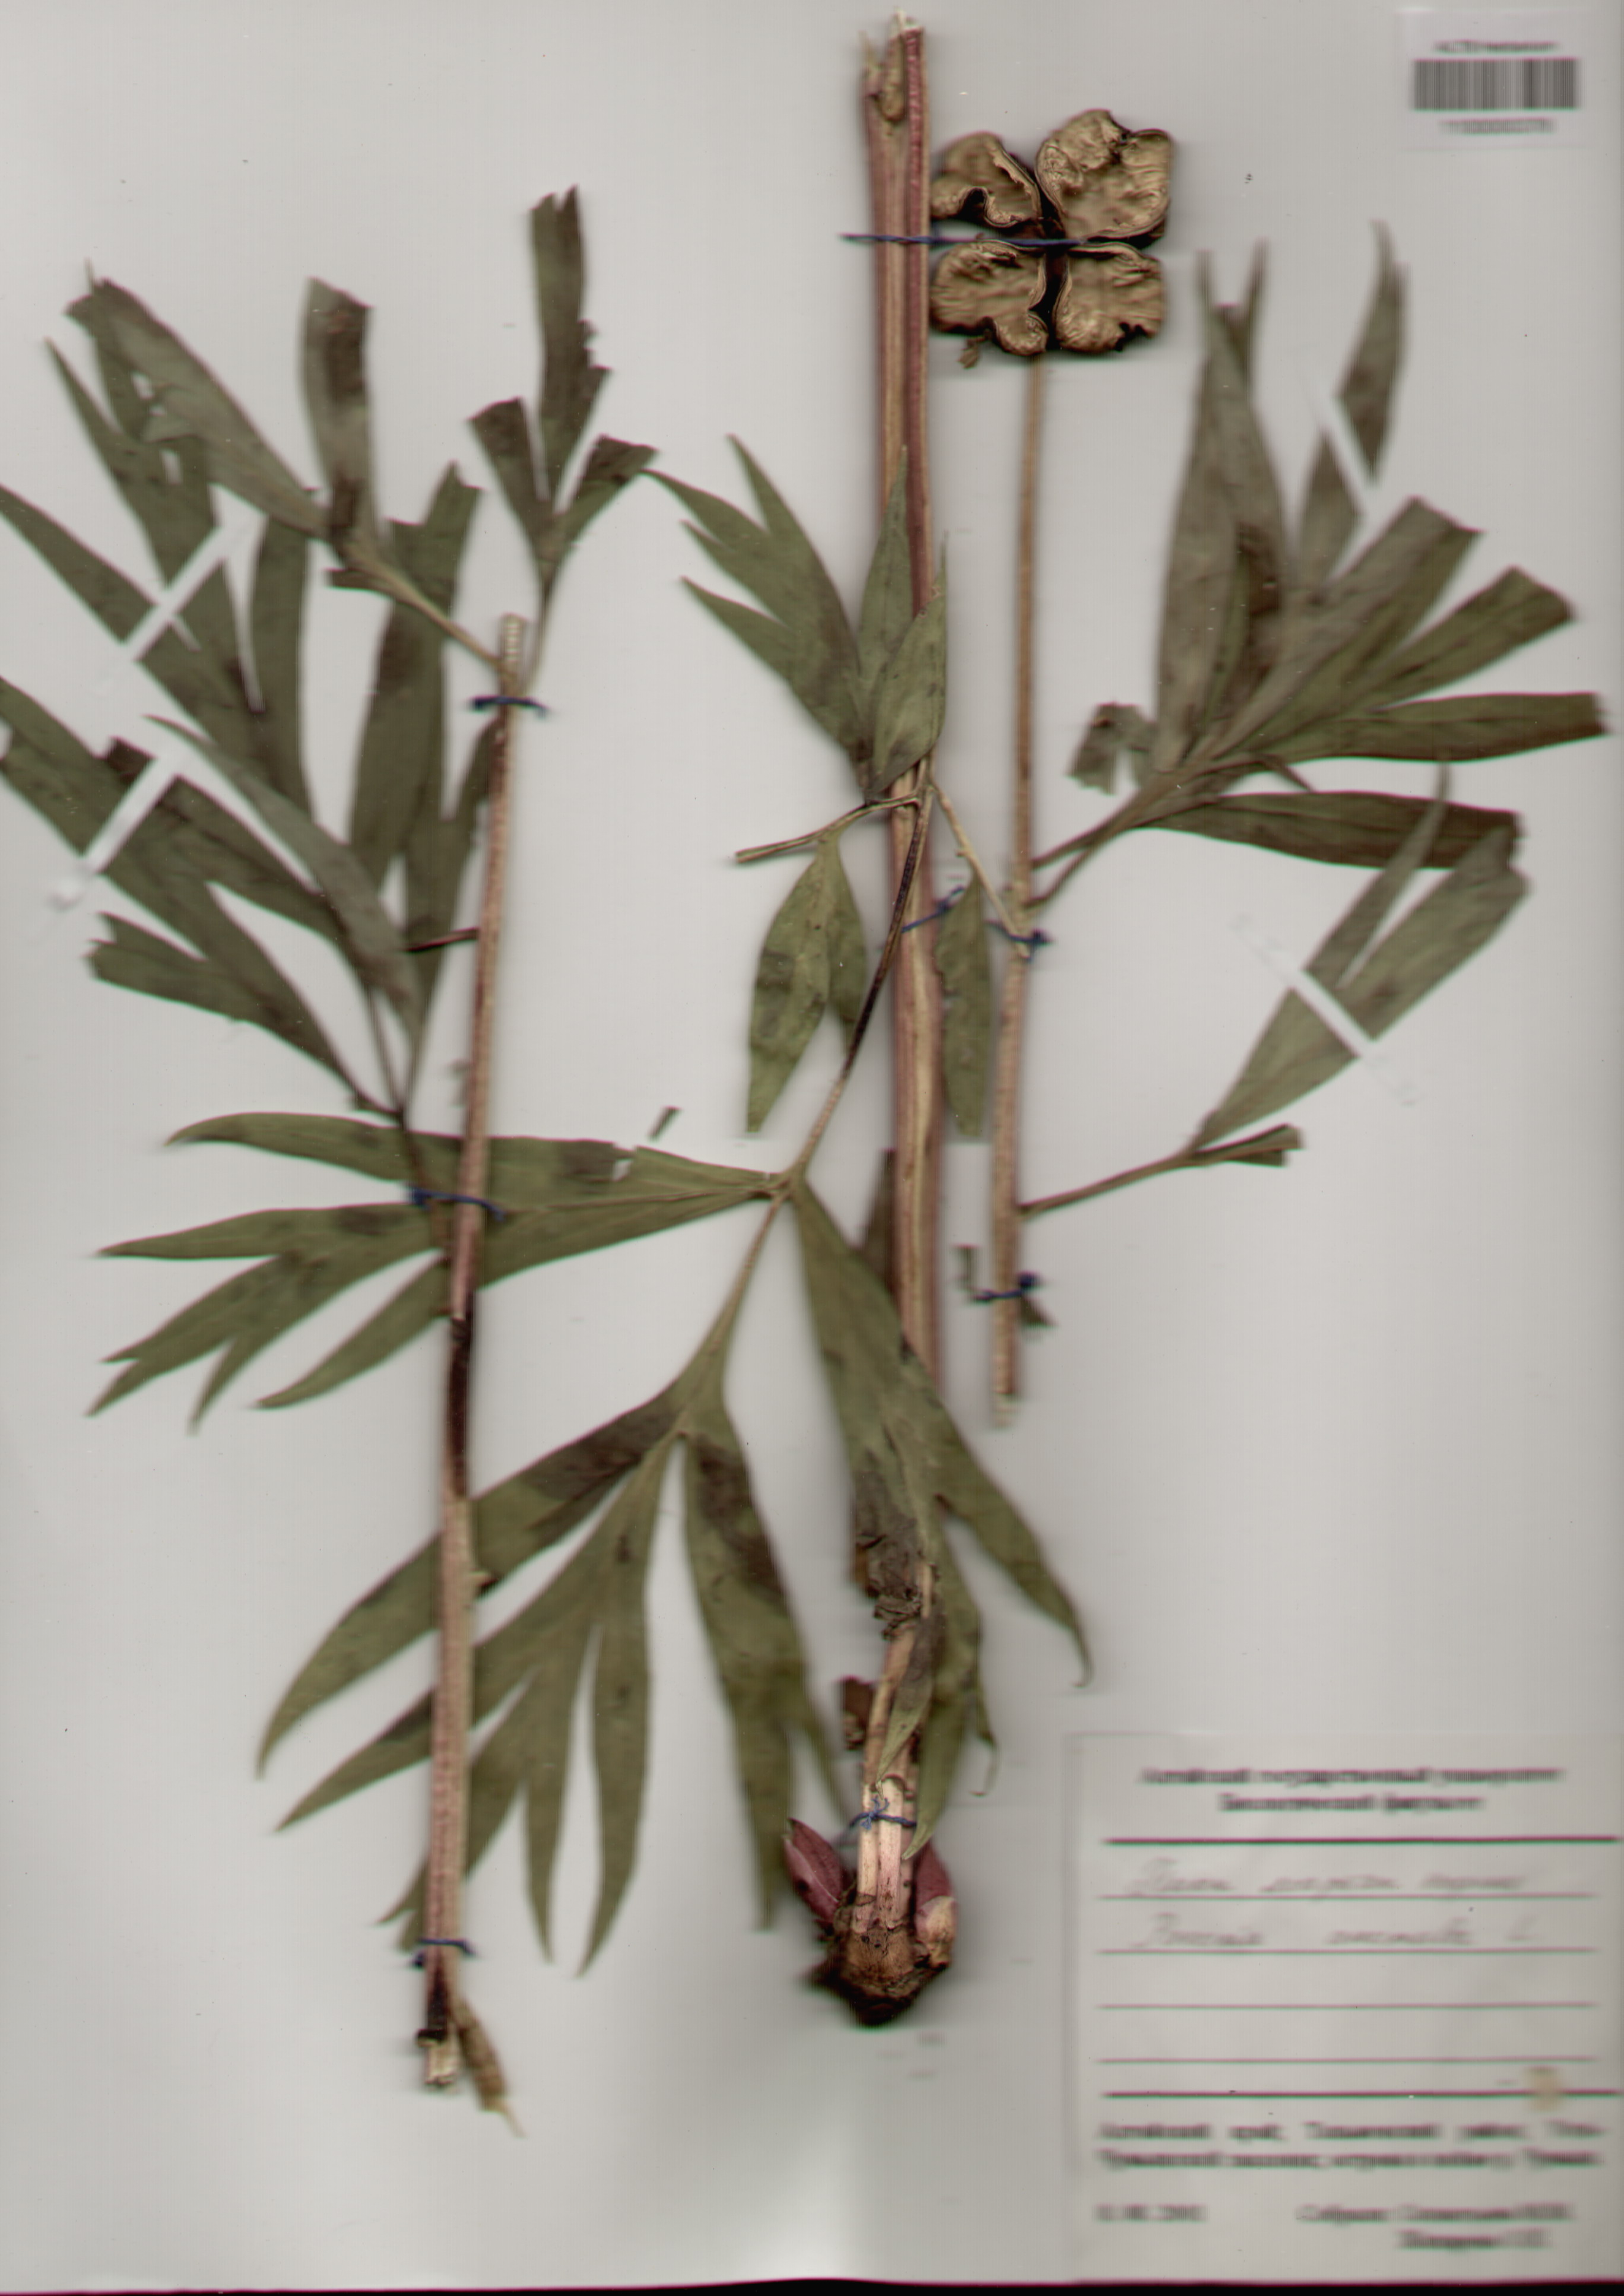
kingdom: Plantae
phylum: Tracheophyta
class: Magnoliopsida
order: Saxifragales
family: Paeoniaceae
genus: Paeonia
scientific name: Paeonia anomala
